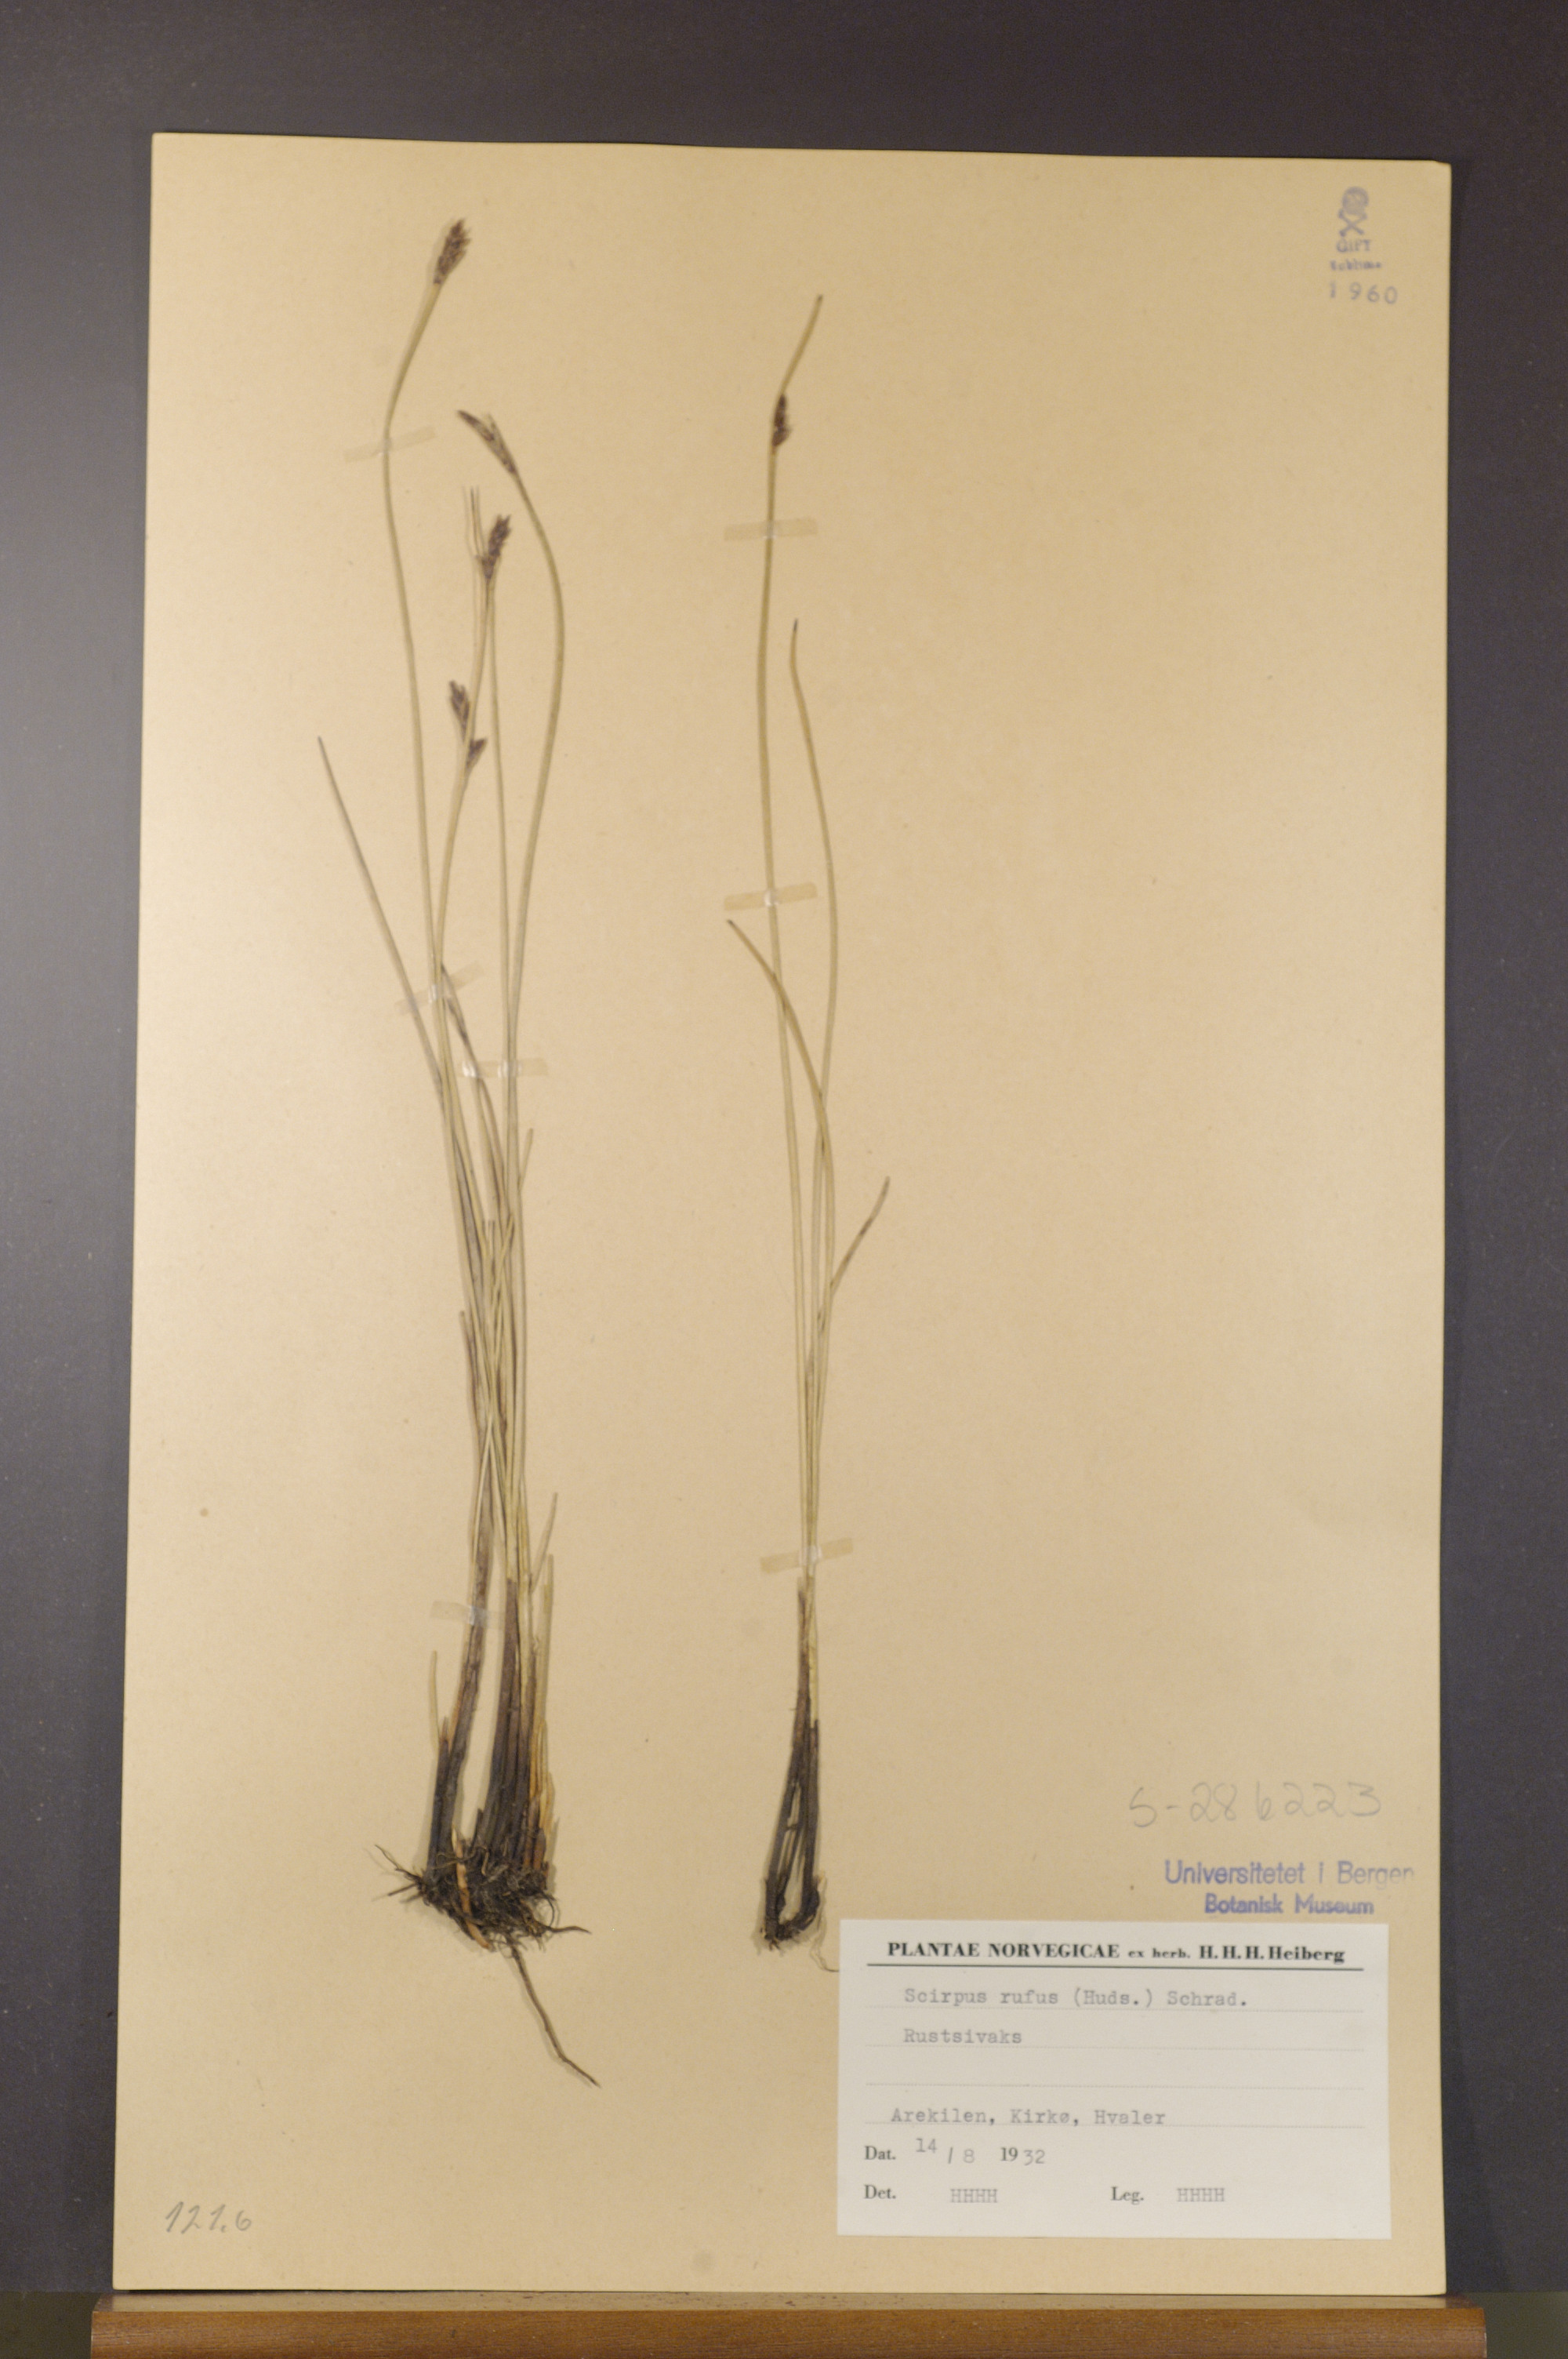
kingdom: Plantae
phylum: Tracheophyta
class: Liliopsida
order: Poales
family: Cyperaceae
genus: Blysmus
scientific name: Blysmus rufus
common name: Saltmarsh flat-sedge
